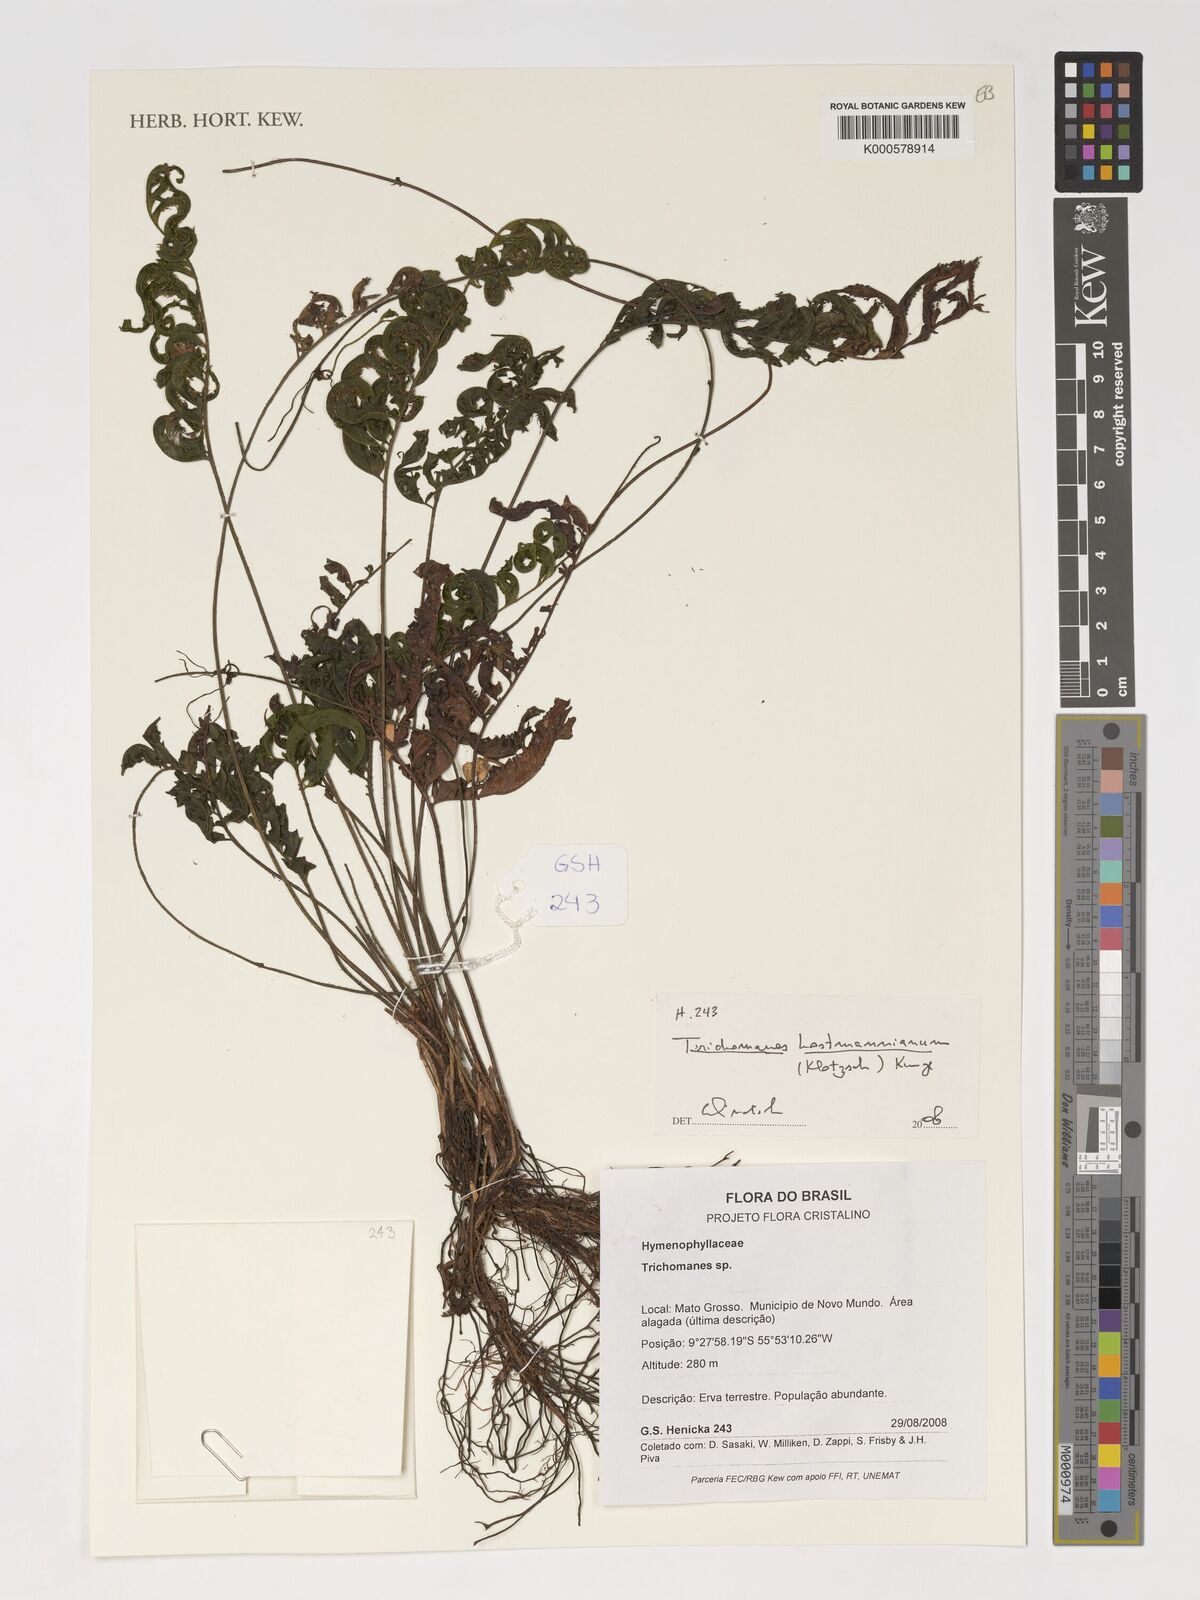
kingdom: Plantae
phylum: Tracheophyta
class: Polypodiopsida
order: Hymenophyllales
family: Hymenophyllaceae
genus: Trichomanes
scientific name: Trichomanes hostmannianum
